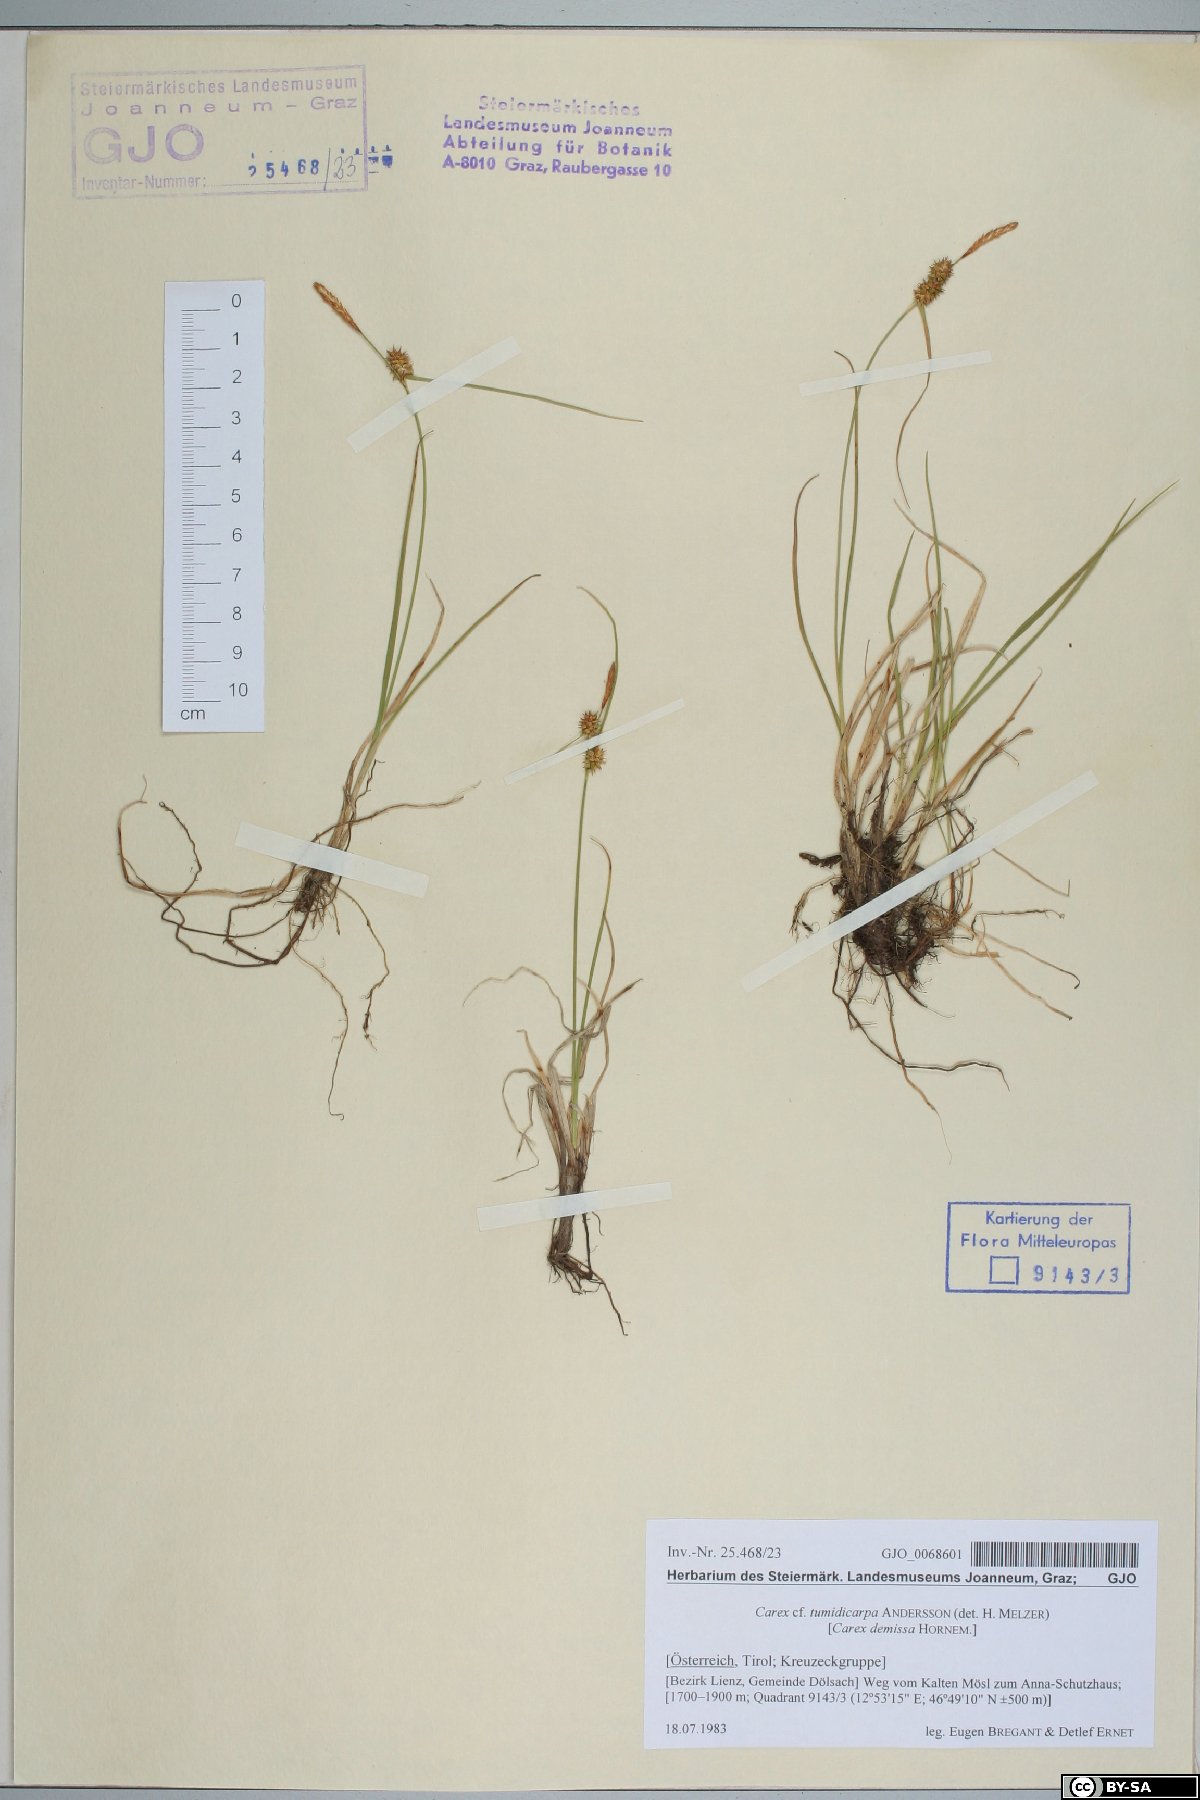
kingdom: Plantae
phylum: Tracheophyta
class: Liliopsida
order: Poales
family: Cyperaceae
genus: Carex
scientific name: Carex demissa
